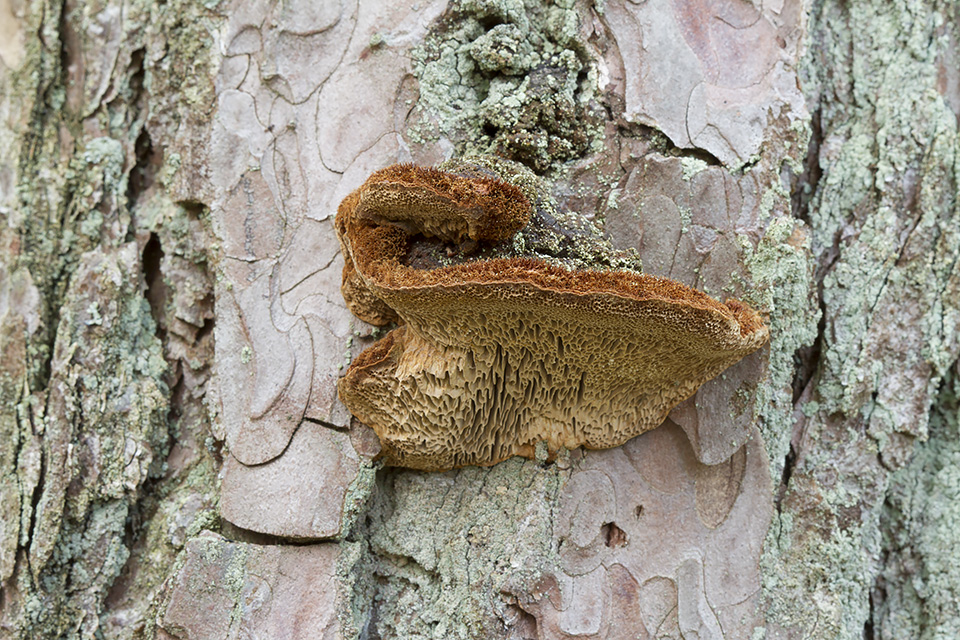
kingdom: Fungi
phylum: Basidiomycota
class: Agaricomycetes
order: Hymenochaetales
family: Hymenochaetaceae
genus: Porodaedalea
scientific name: Porodaedalea pini
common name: fyrre-ildporesvamp
